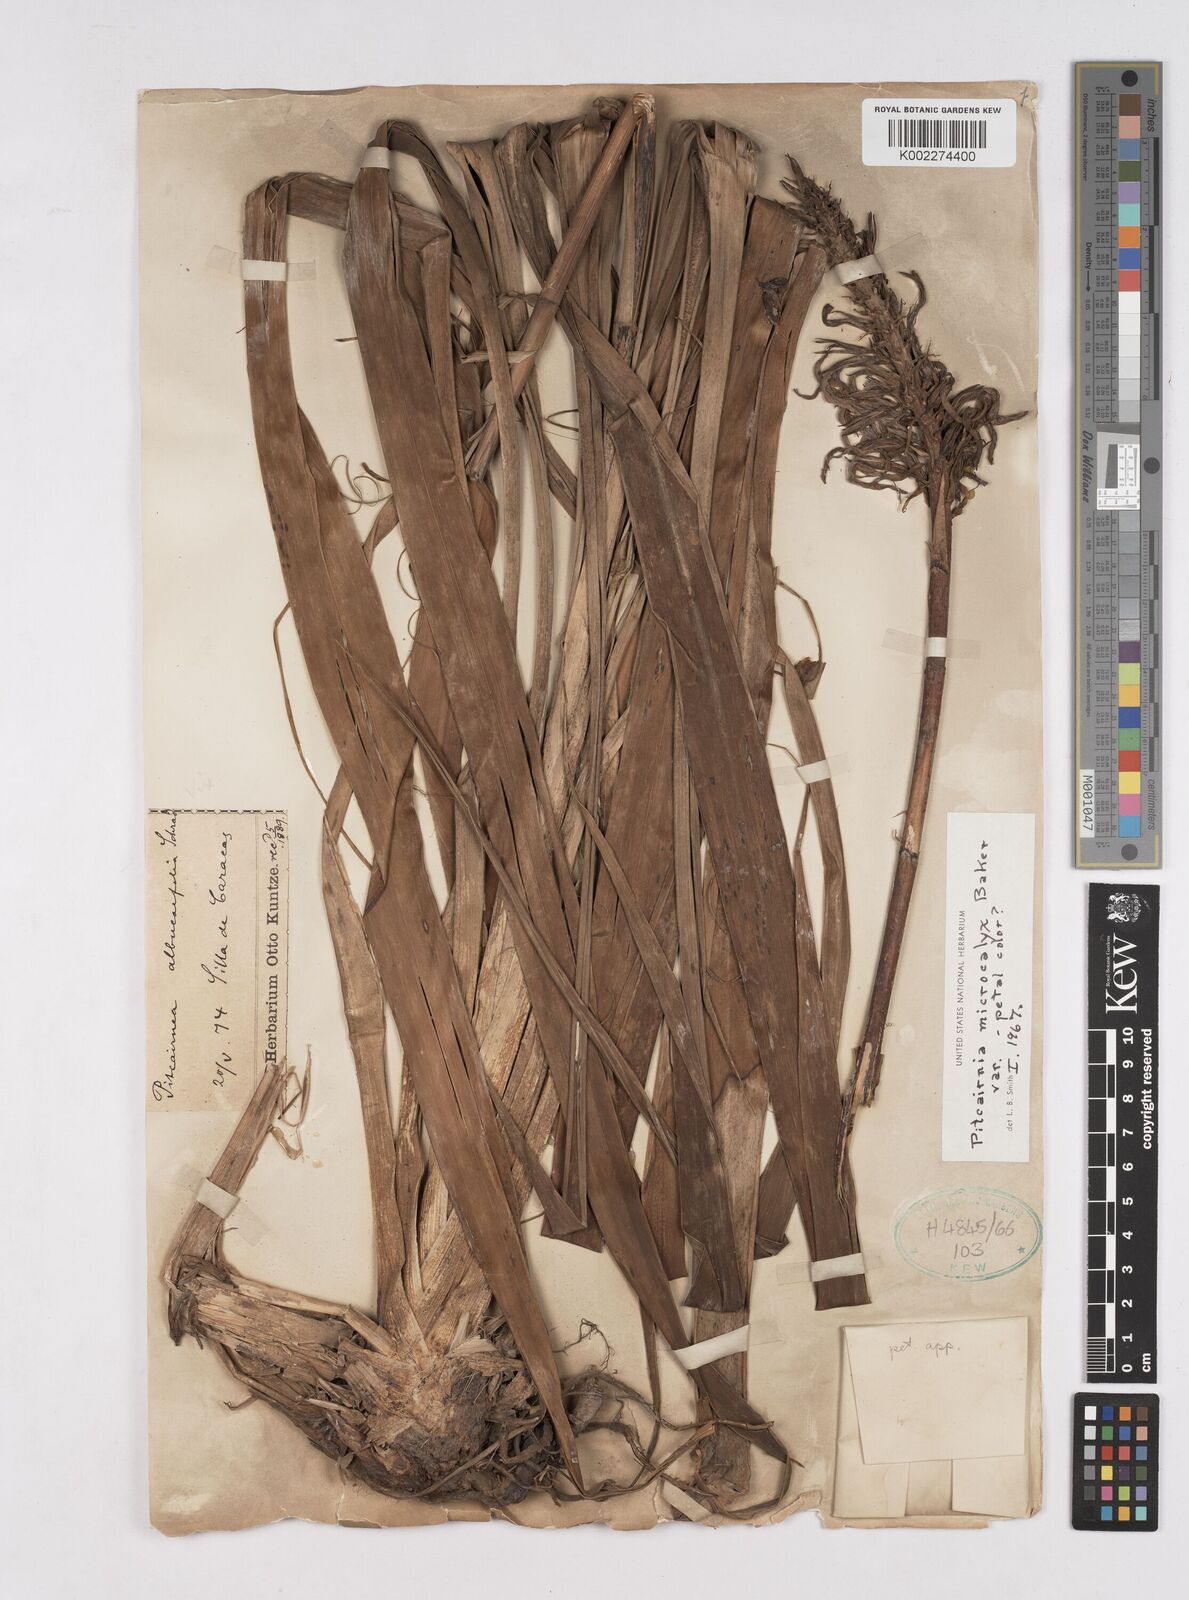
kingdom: Plantae
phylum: Tracheophyta
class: Liliopsida
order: Poales
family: Bromeliaceae
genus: Pitcairnia
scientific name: Pitcairnia microcalyx
